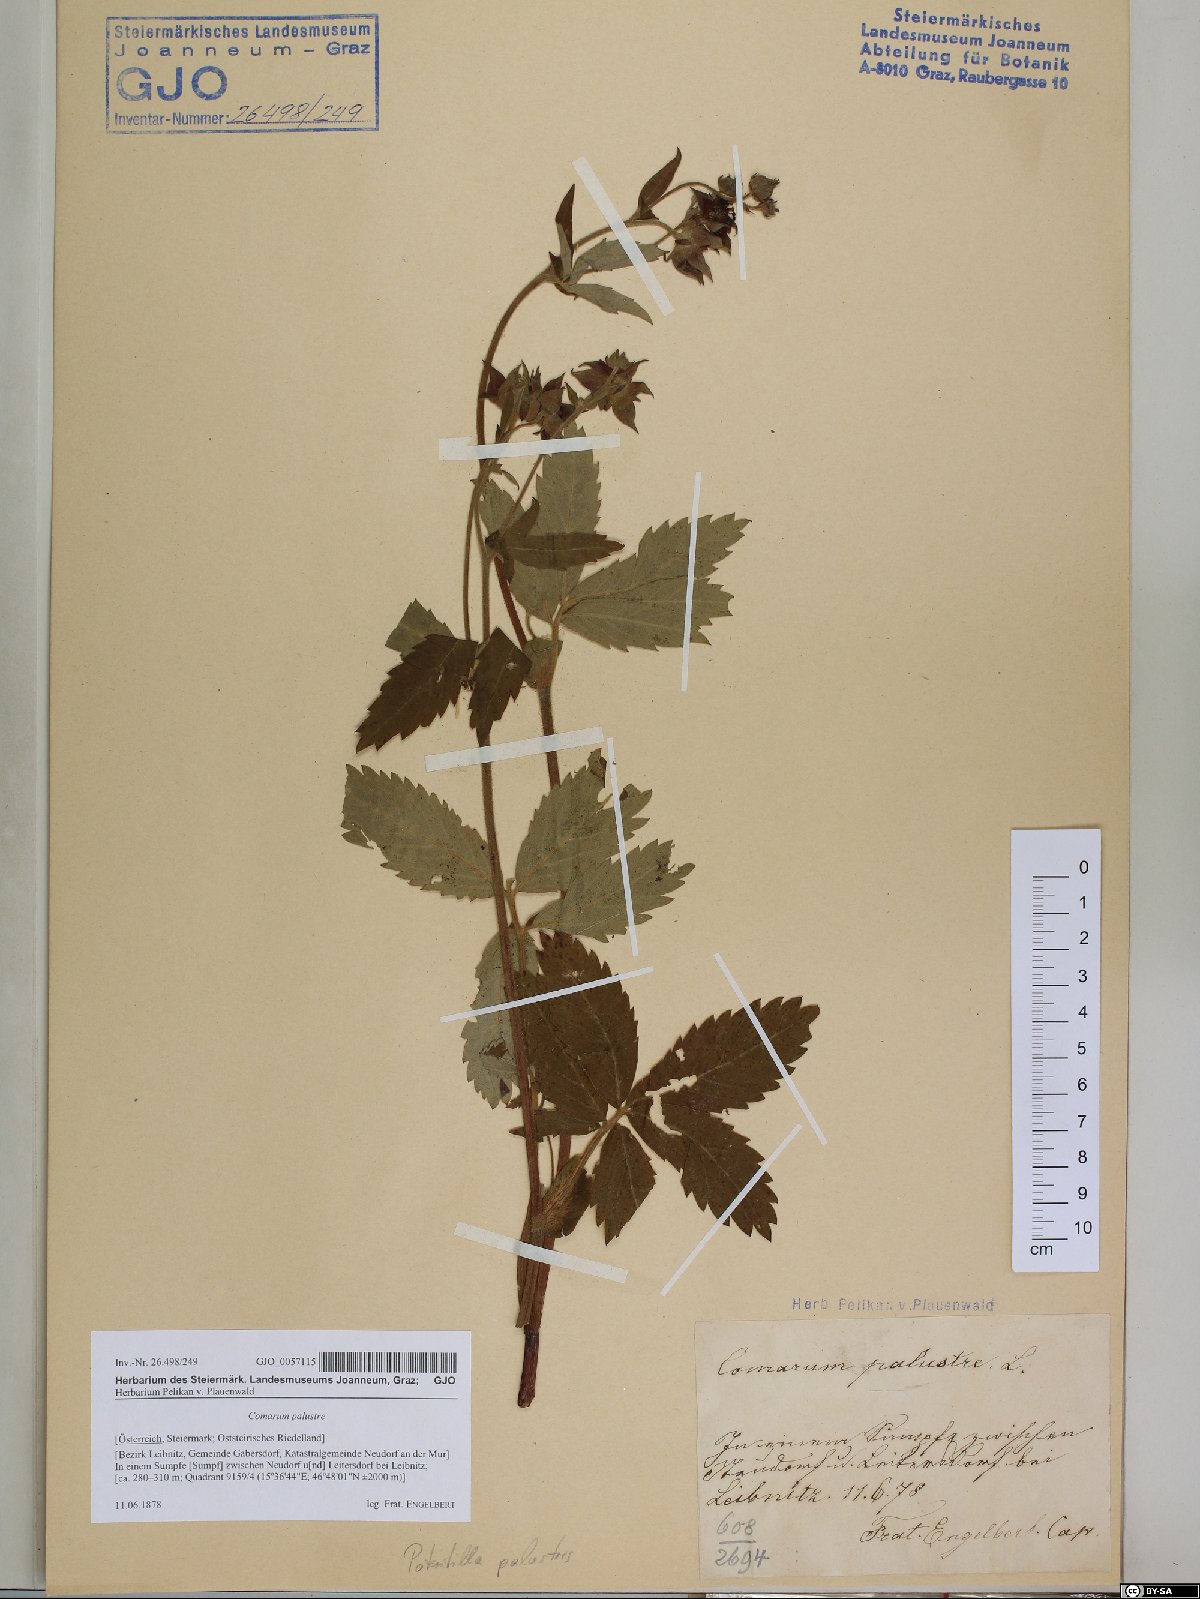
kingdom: Plantae
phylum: Tracheophyta
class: Magnoliopsida
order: Rosales
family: Rosaceae
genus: Comarum
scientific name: Comarum palustre
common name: Marsh cinquefoil
